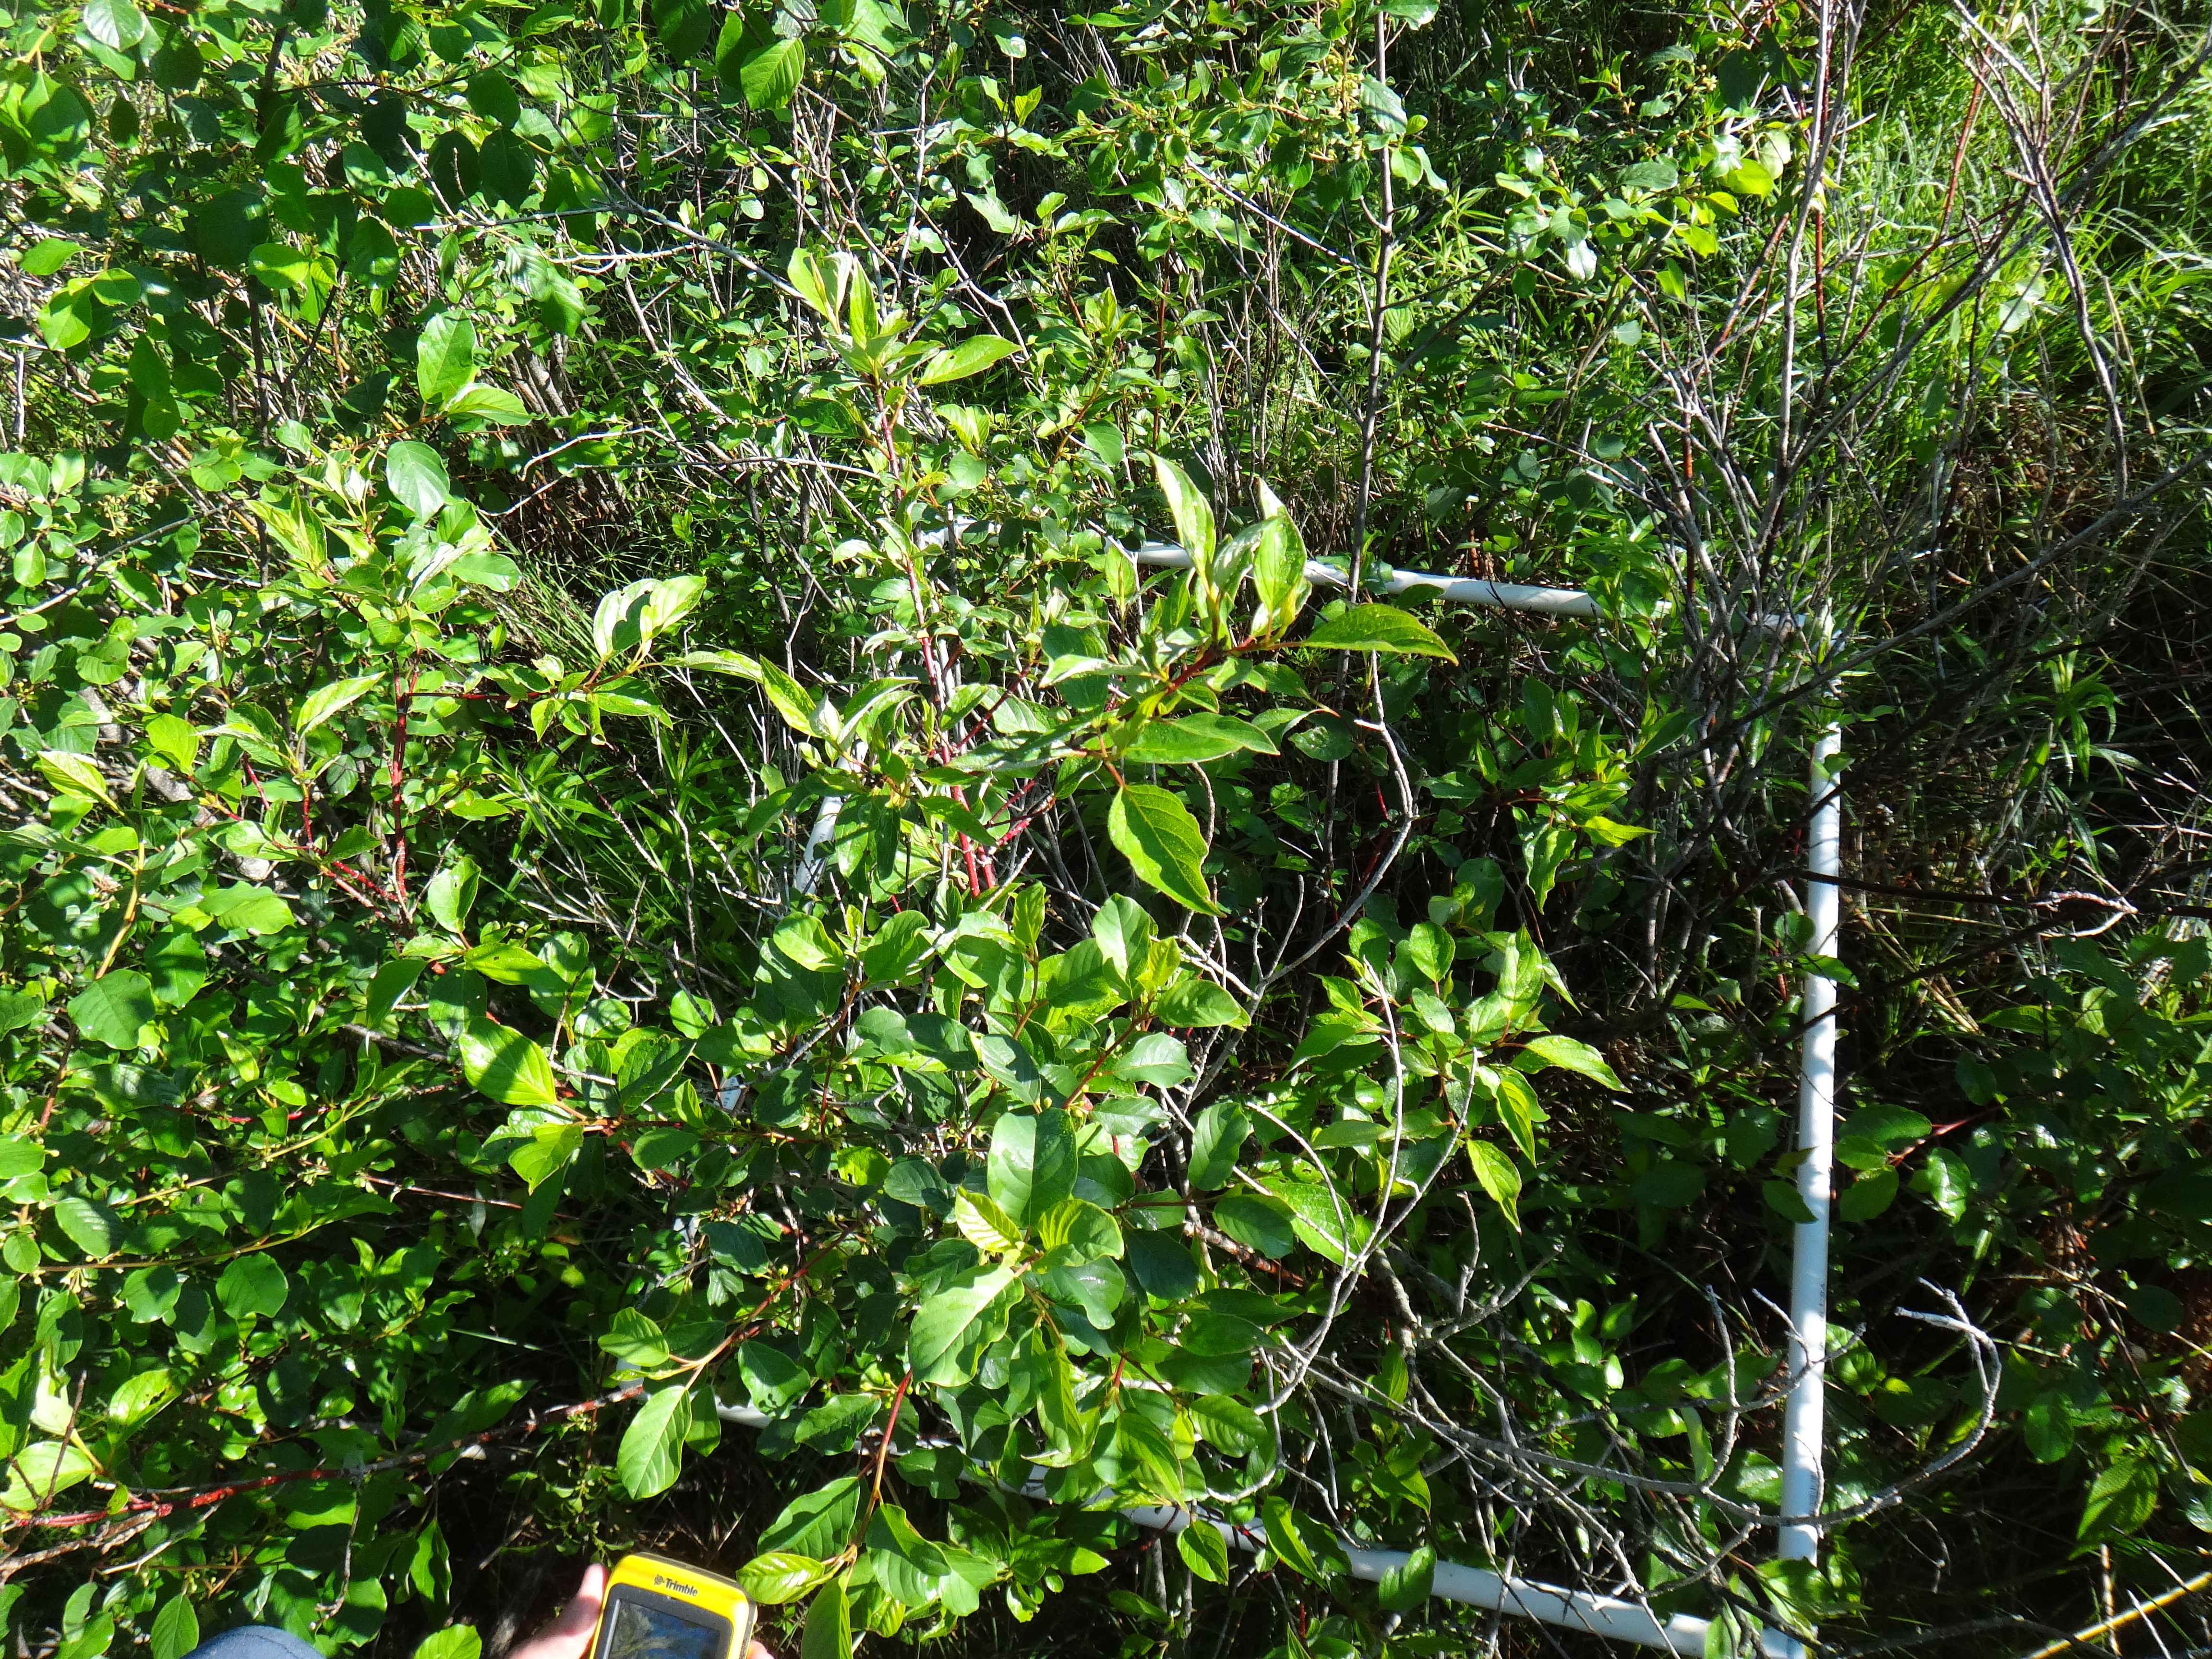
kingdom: Plantae
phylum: Tracheophyta
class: Liliopsida
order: Poales
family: Poaceae
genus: Calamagrostis
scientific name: Calamagrostis canadensis
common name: Canada bluejoint
